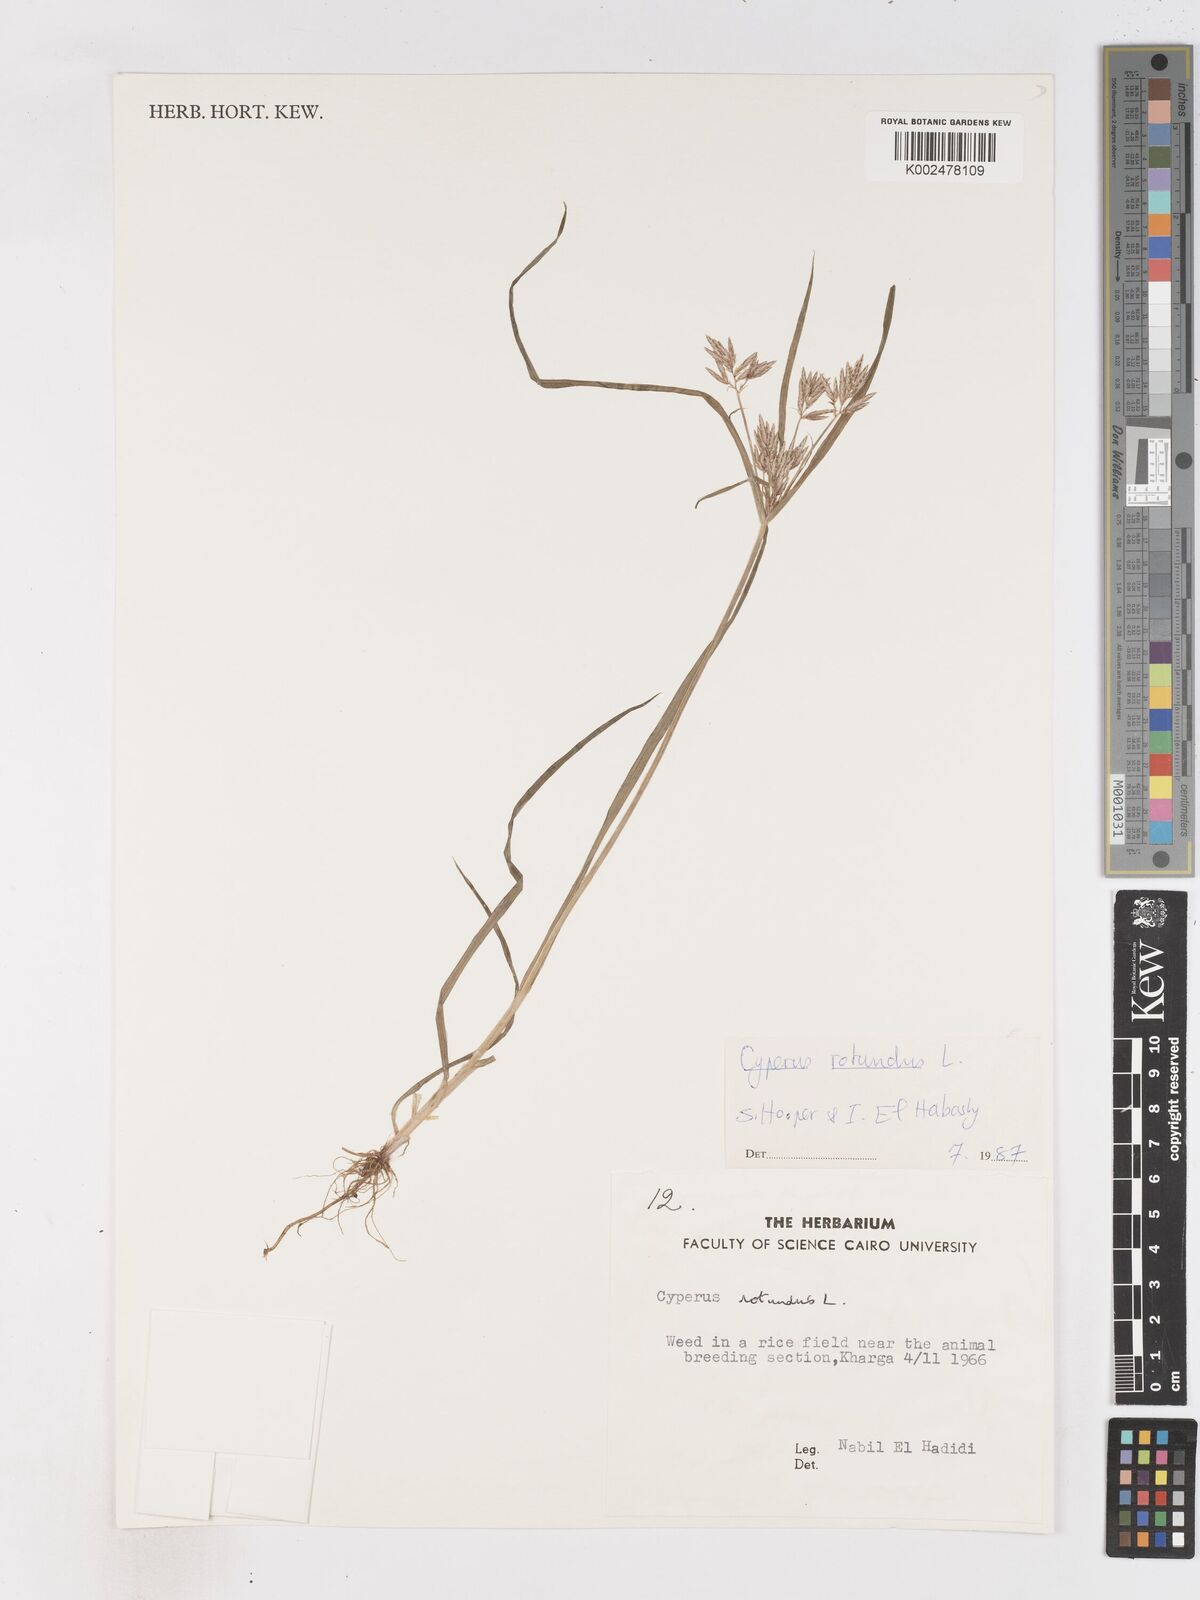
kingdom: Plantae
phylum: Tracheophyta
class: Liliopsida
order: Poales
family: Cyperaceae
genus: Cyperus
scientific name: Cyperus rotundus
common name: Nutgrass
